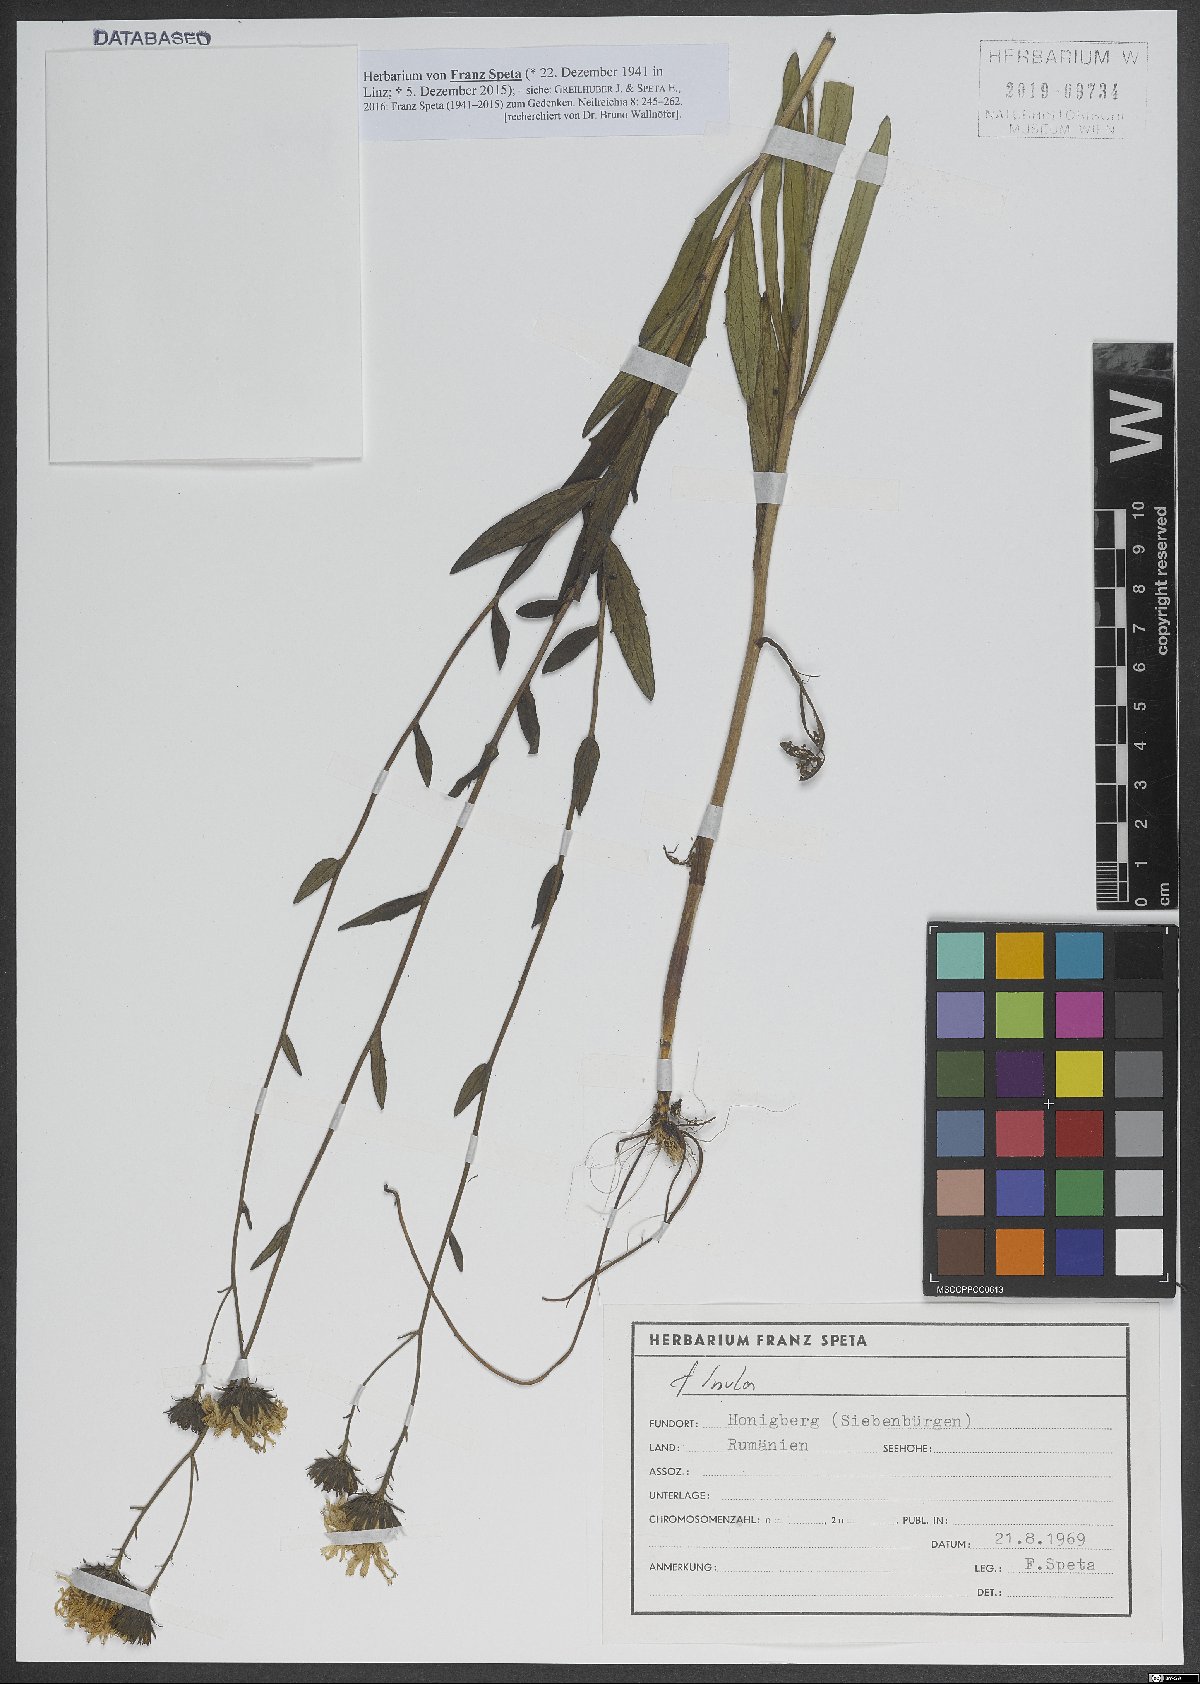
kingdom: Plantae
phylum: Tracheophyta
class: Magnoliopsida
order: Asterales
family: Asteraceae
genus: Inula
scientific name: Inula
